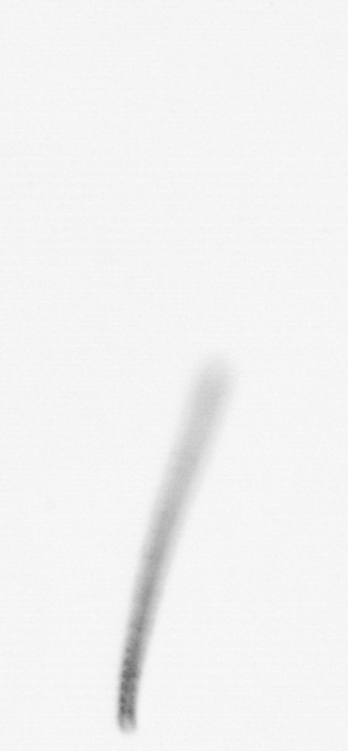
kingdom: Chromista
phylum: Ochrophyta
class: Bacillariophyceae
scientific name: Bacillariophyceae
